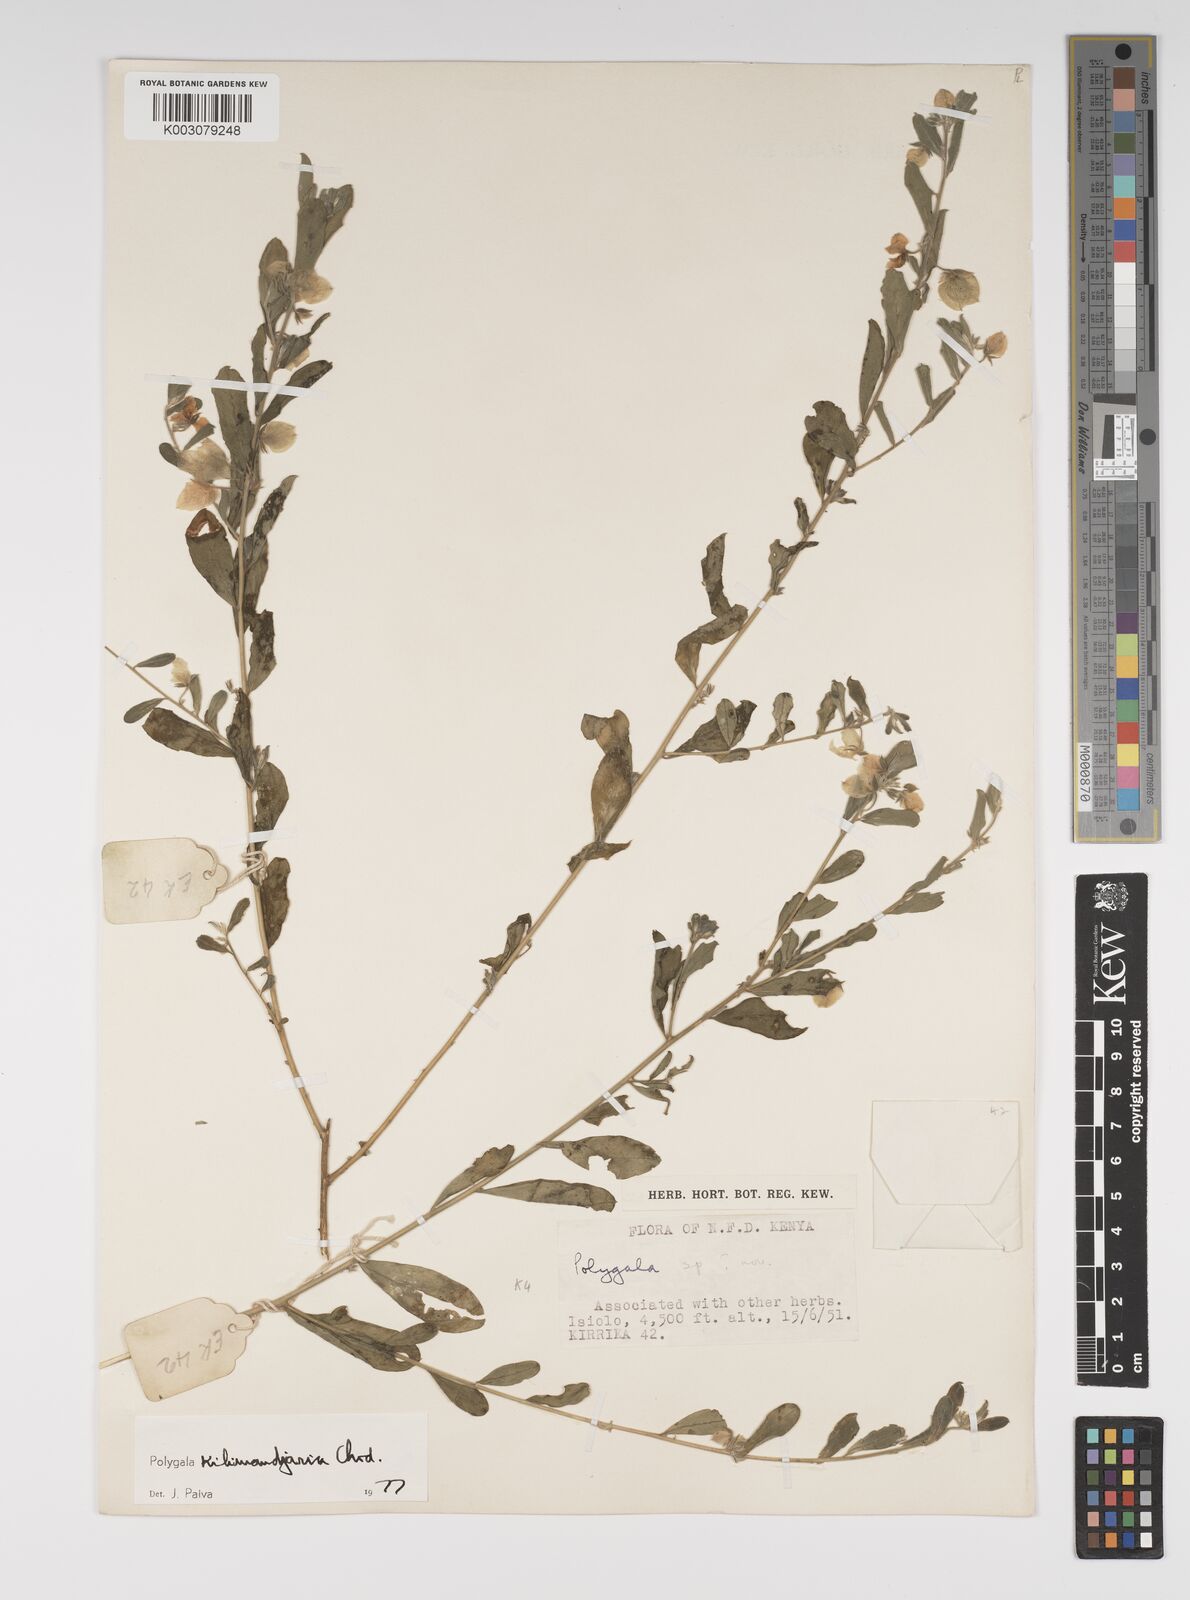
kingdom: Plantae
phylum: Tracheophyta
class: Magnoliopsida
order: Fabales
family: Polygalaceae
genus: Polygala
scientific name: Polygala kilimandjarica
